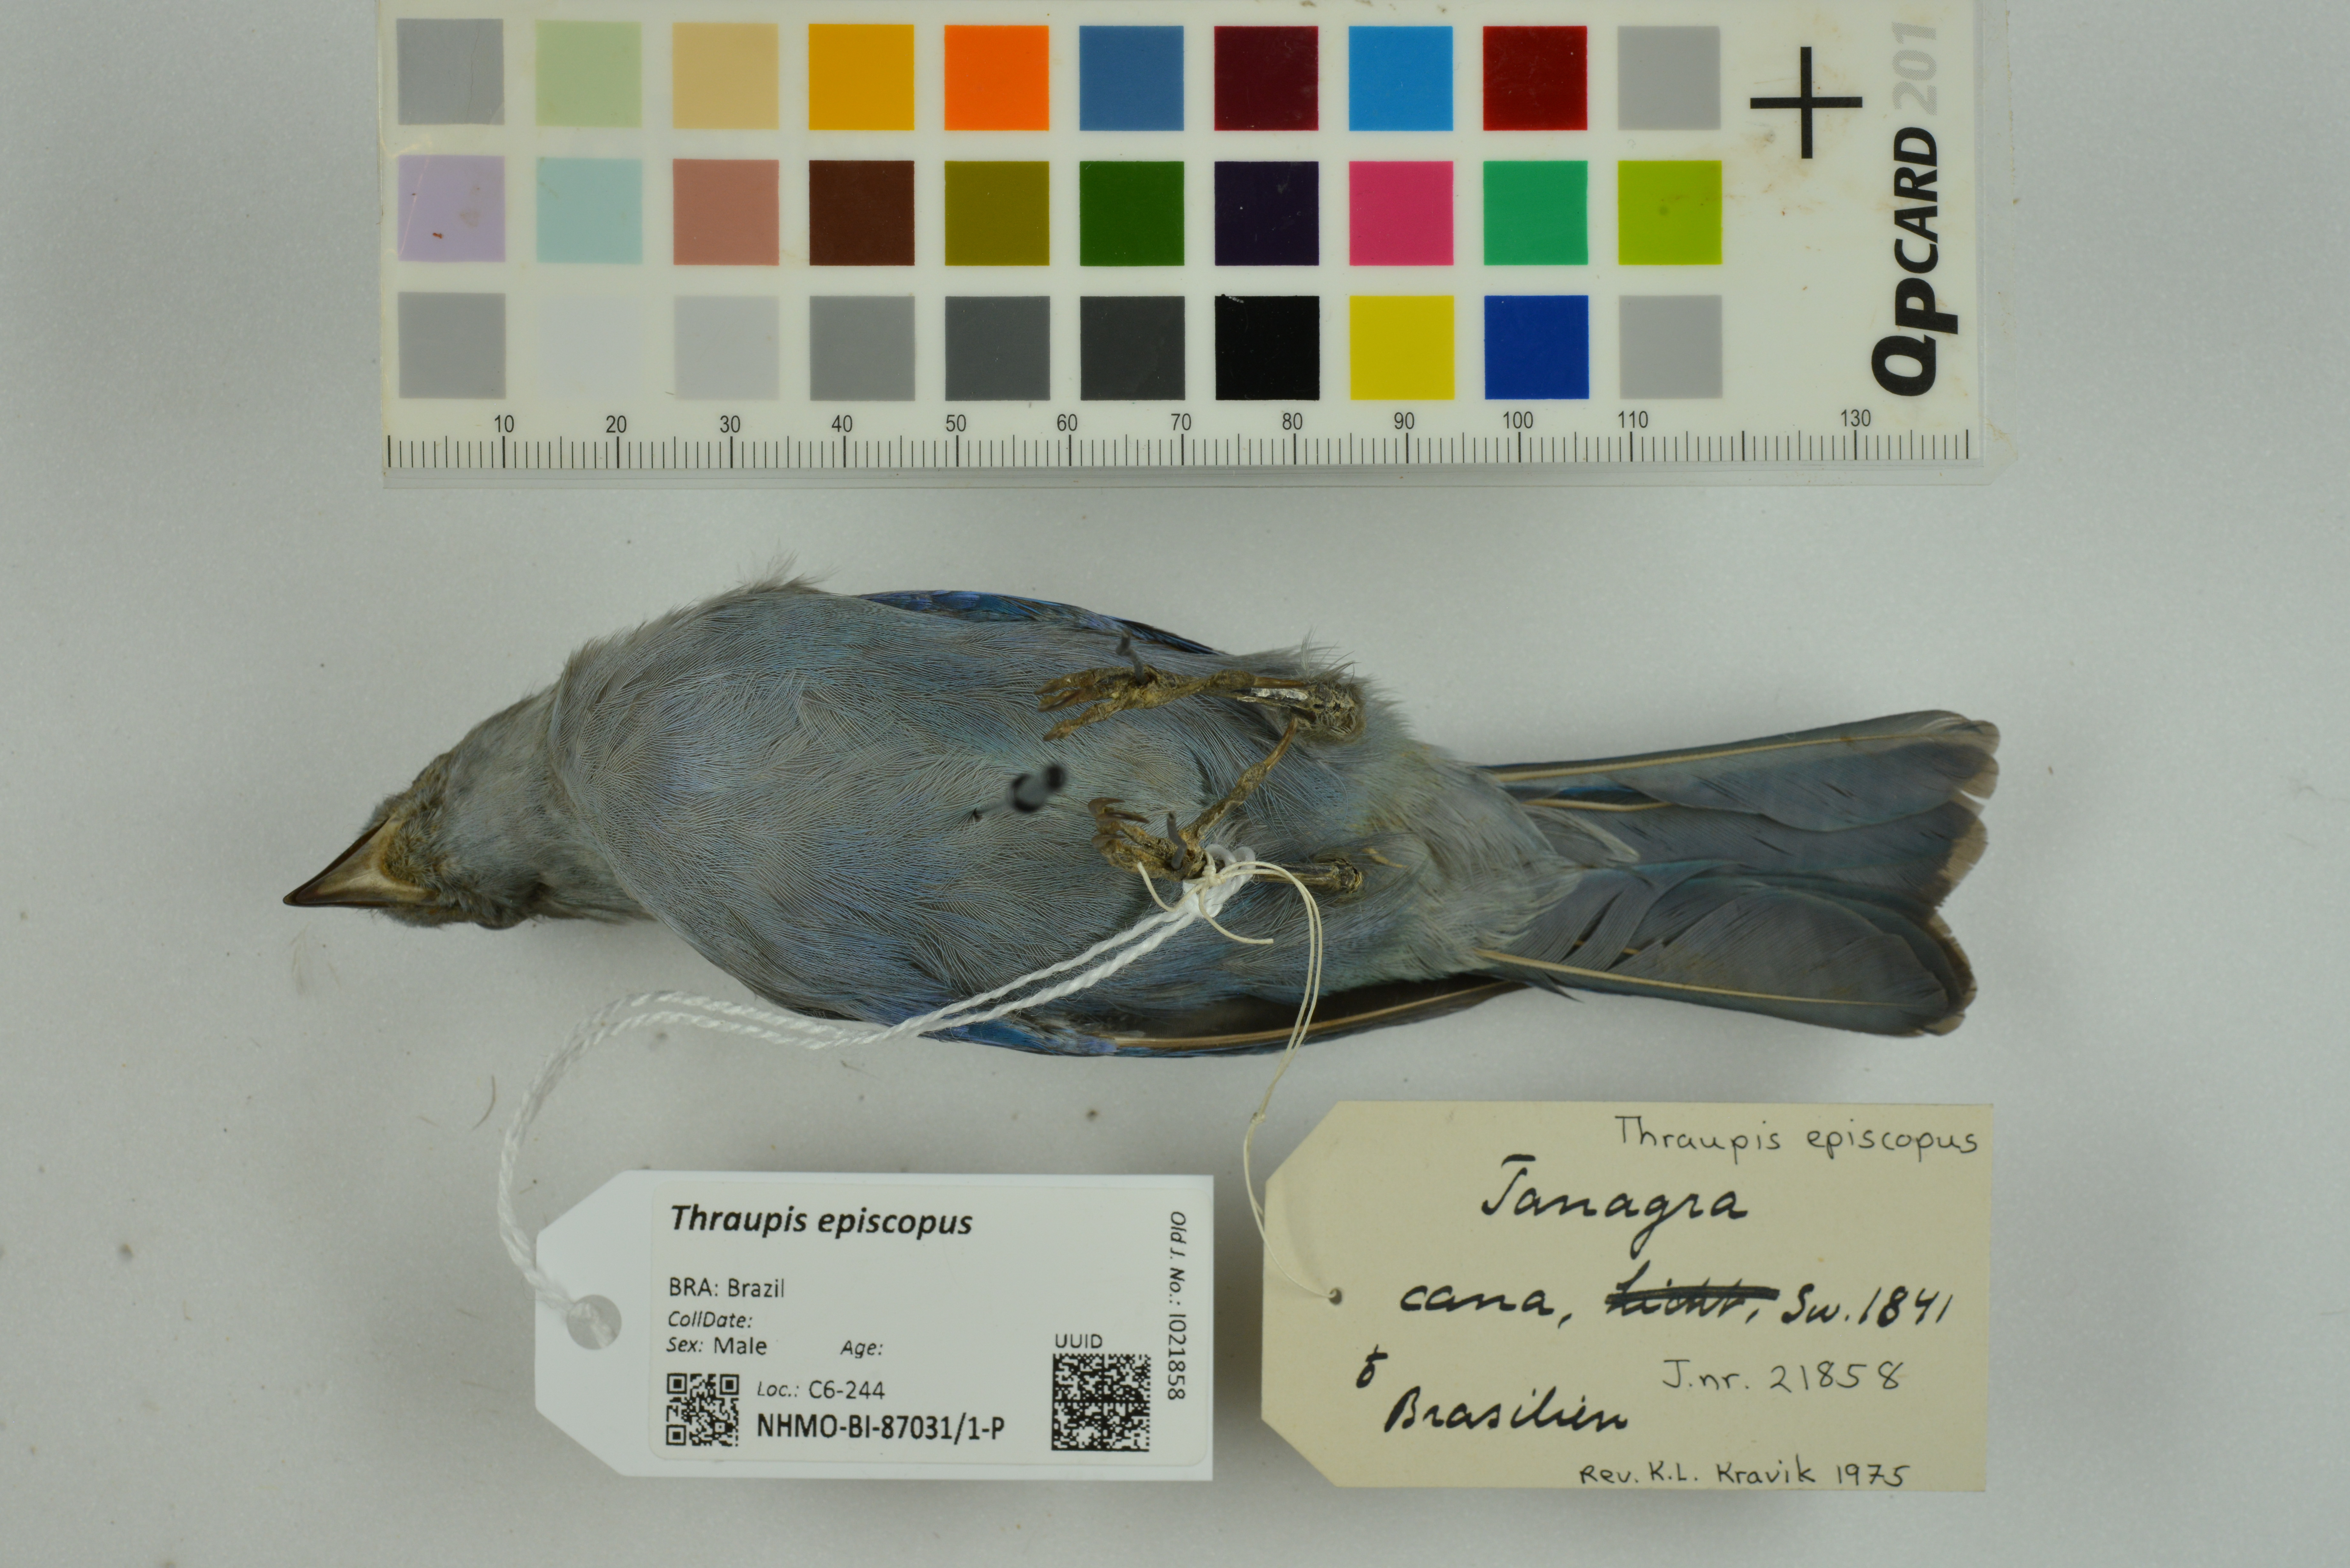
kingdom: Animalia
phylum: Chordata
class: Aves
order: Passeriformes
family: Thraupidae
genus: Thraupis
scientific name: Thraupis episcopus
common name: Blue-grey tanager
